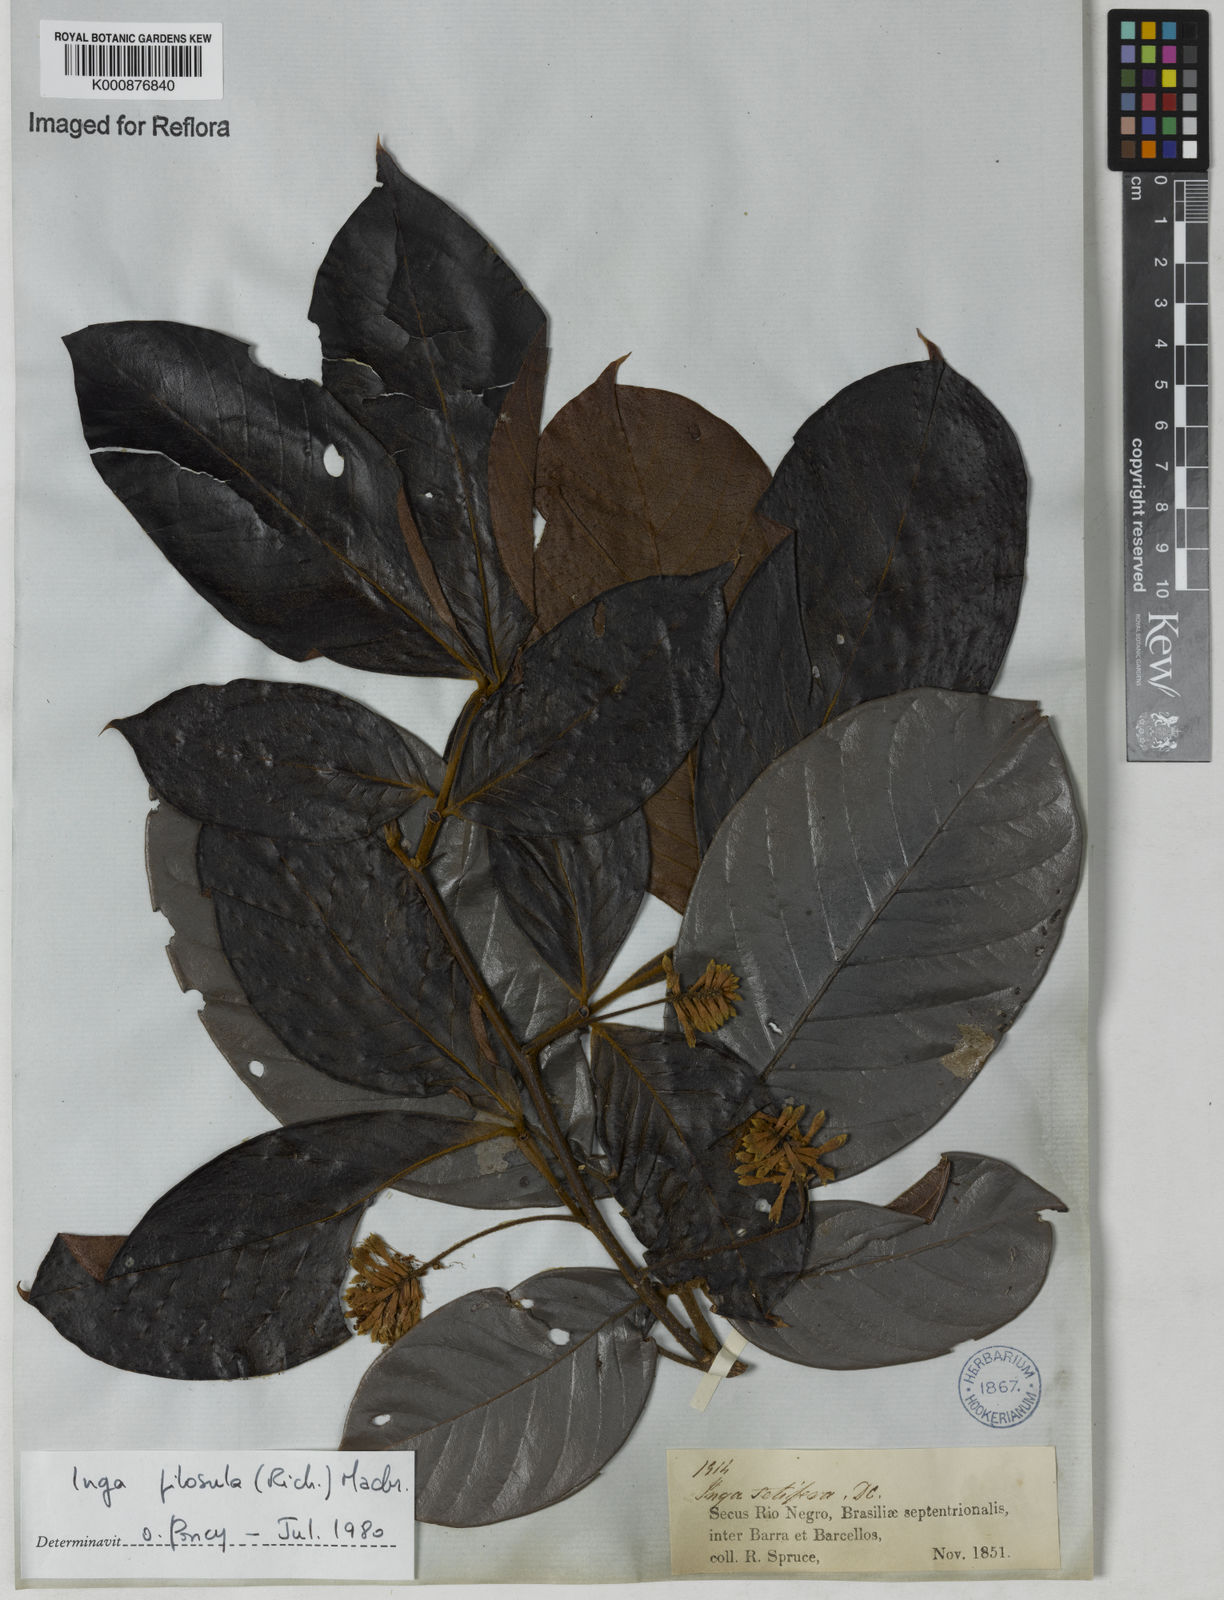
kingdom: Plantae
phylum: Tracheophyta
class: Magnoliopsida
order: Fabales
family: Fabaceae
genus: Inga
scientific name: Inga pilosula
